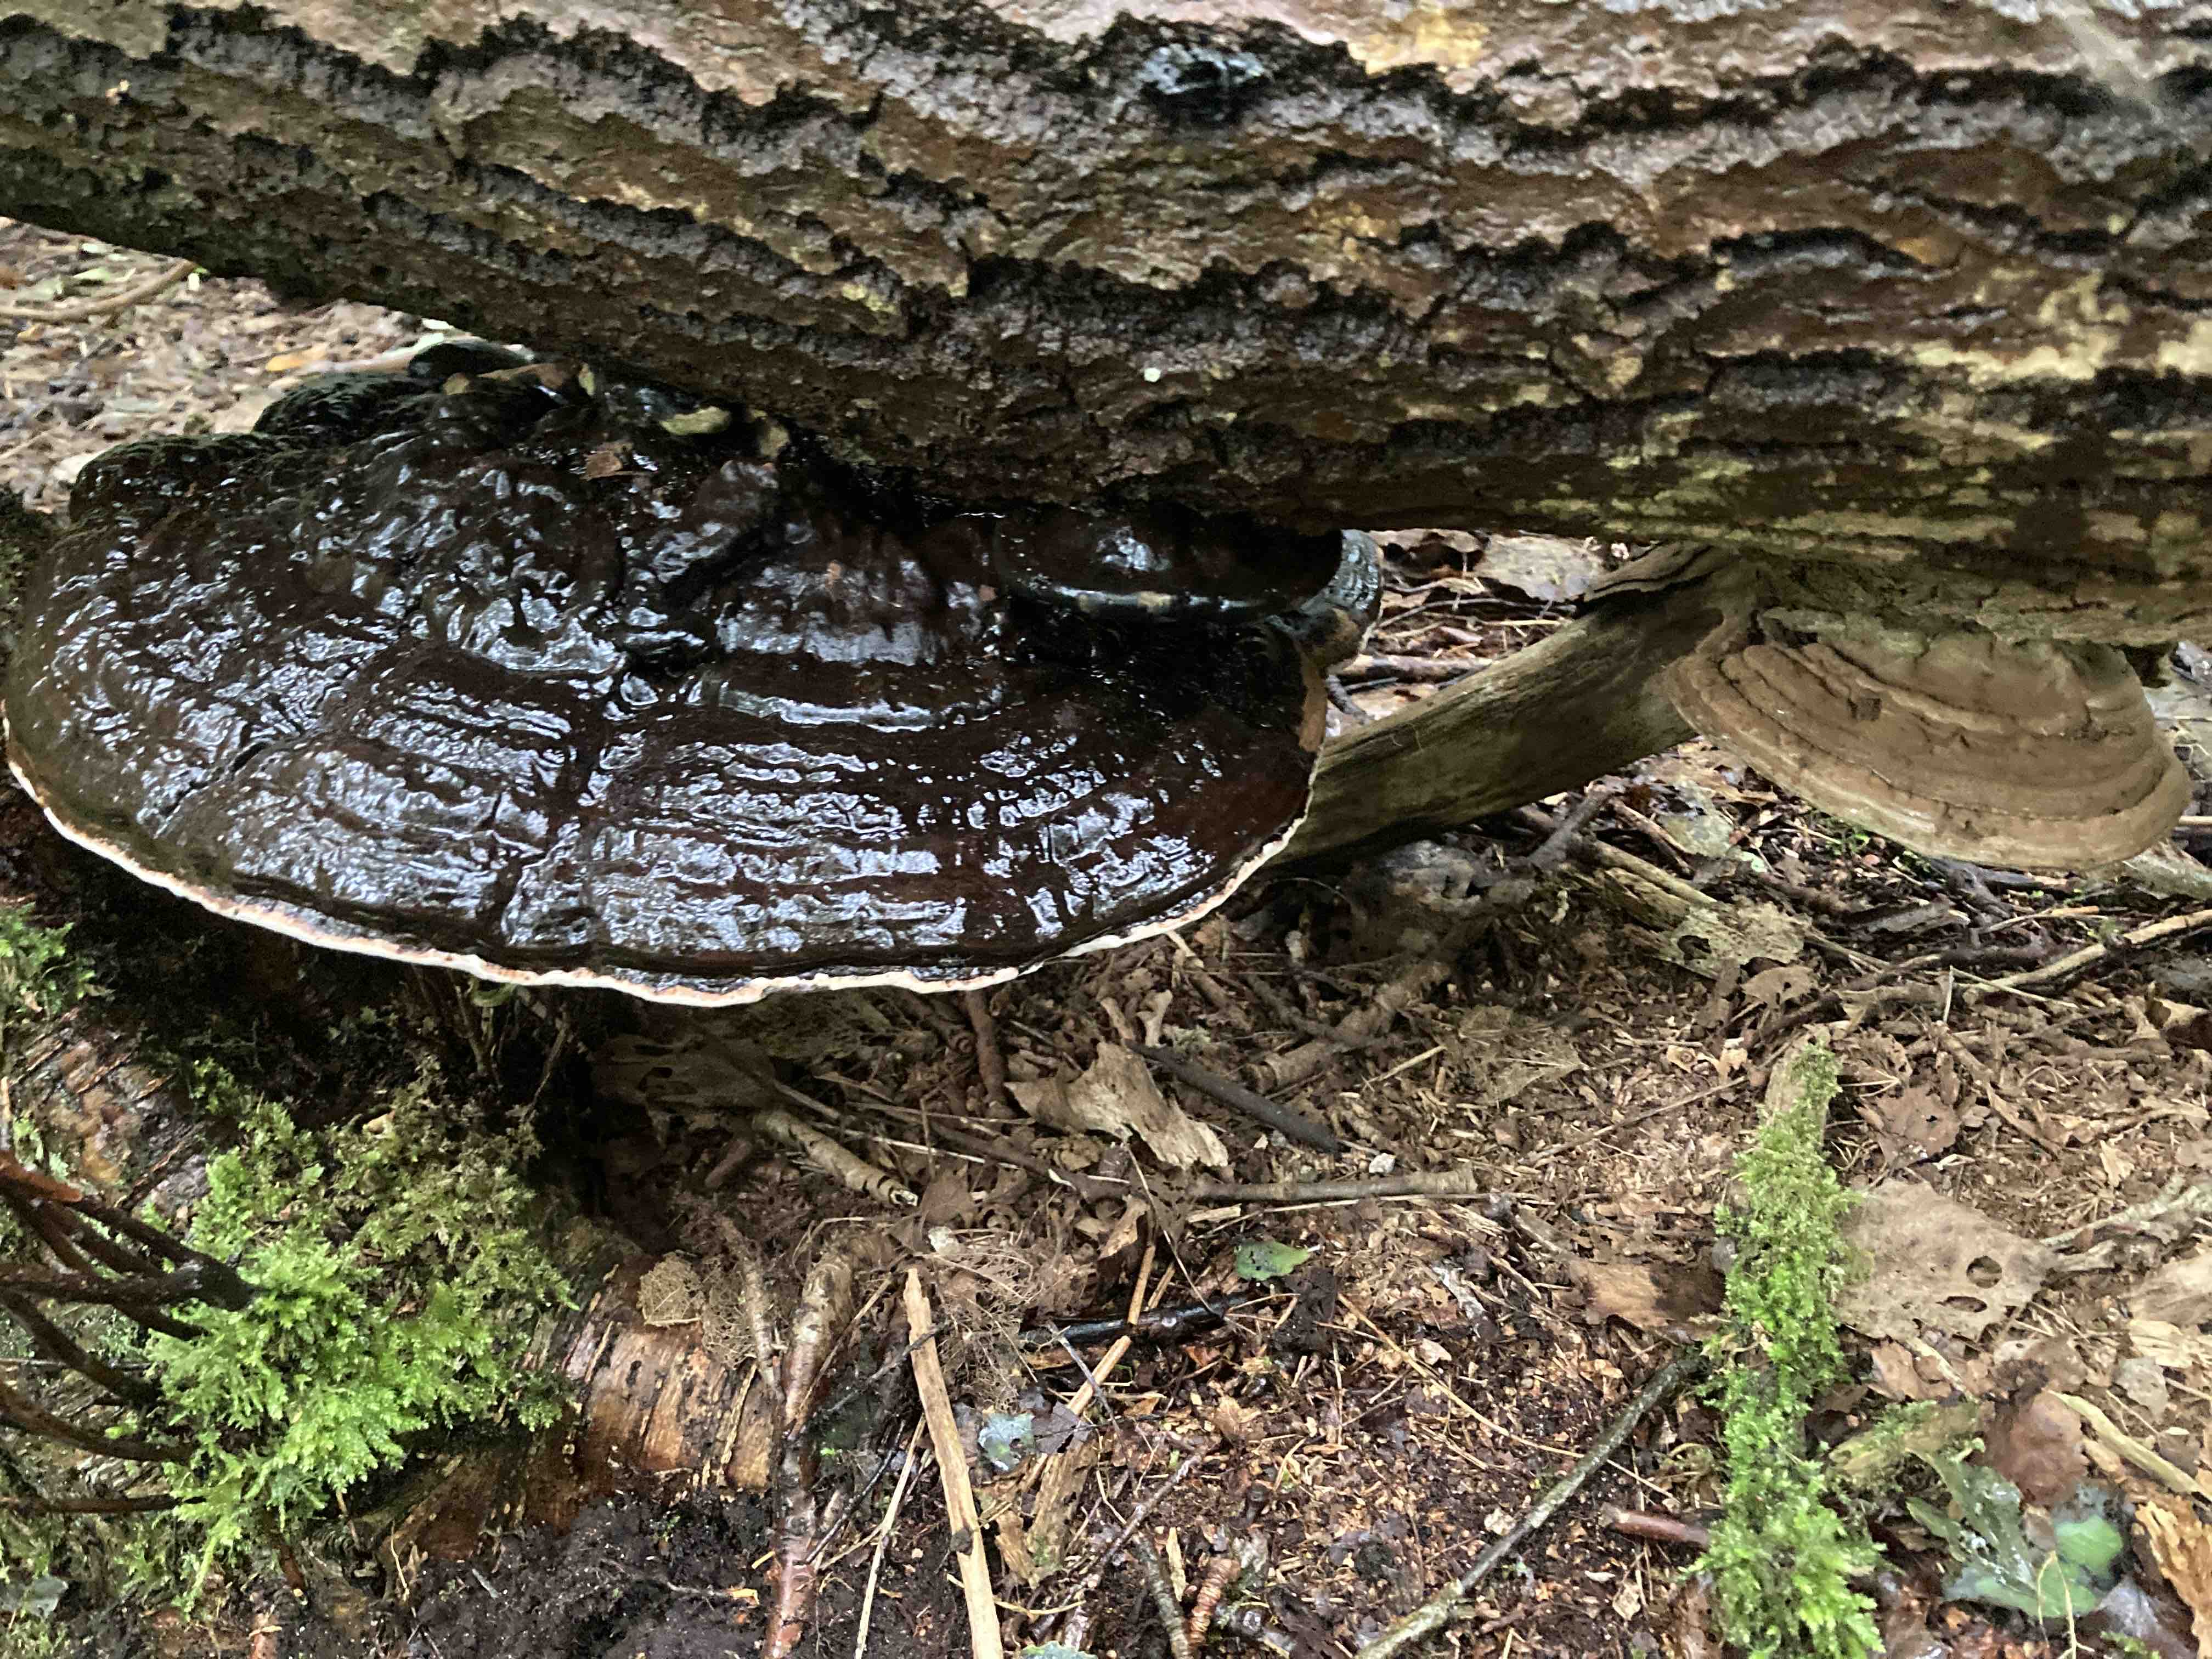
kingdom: Fungi
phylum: Basidiomycota
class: Agaricomycetes
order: Polyporales
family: Polyporaceae
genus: Ganoderma
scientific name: Ganoderma applanatum
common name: flad lakporesvamp
